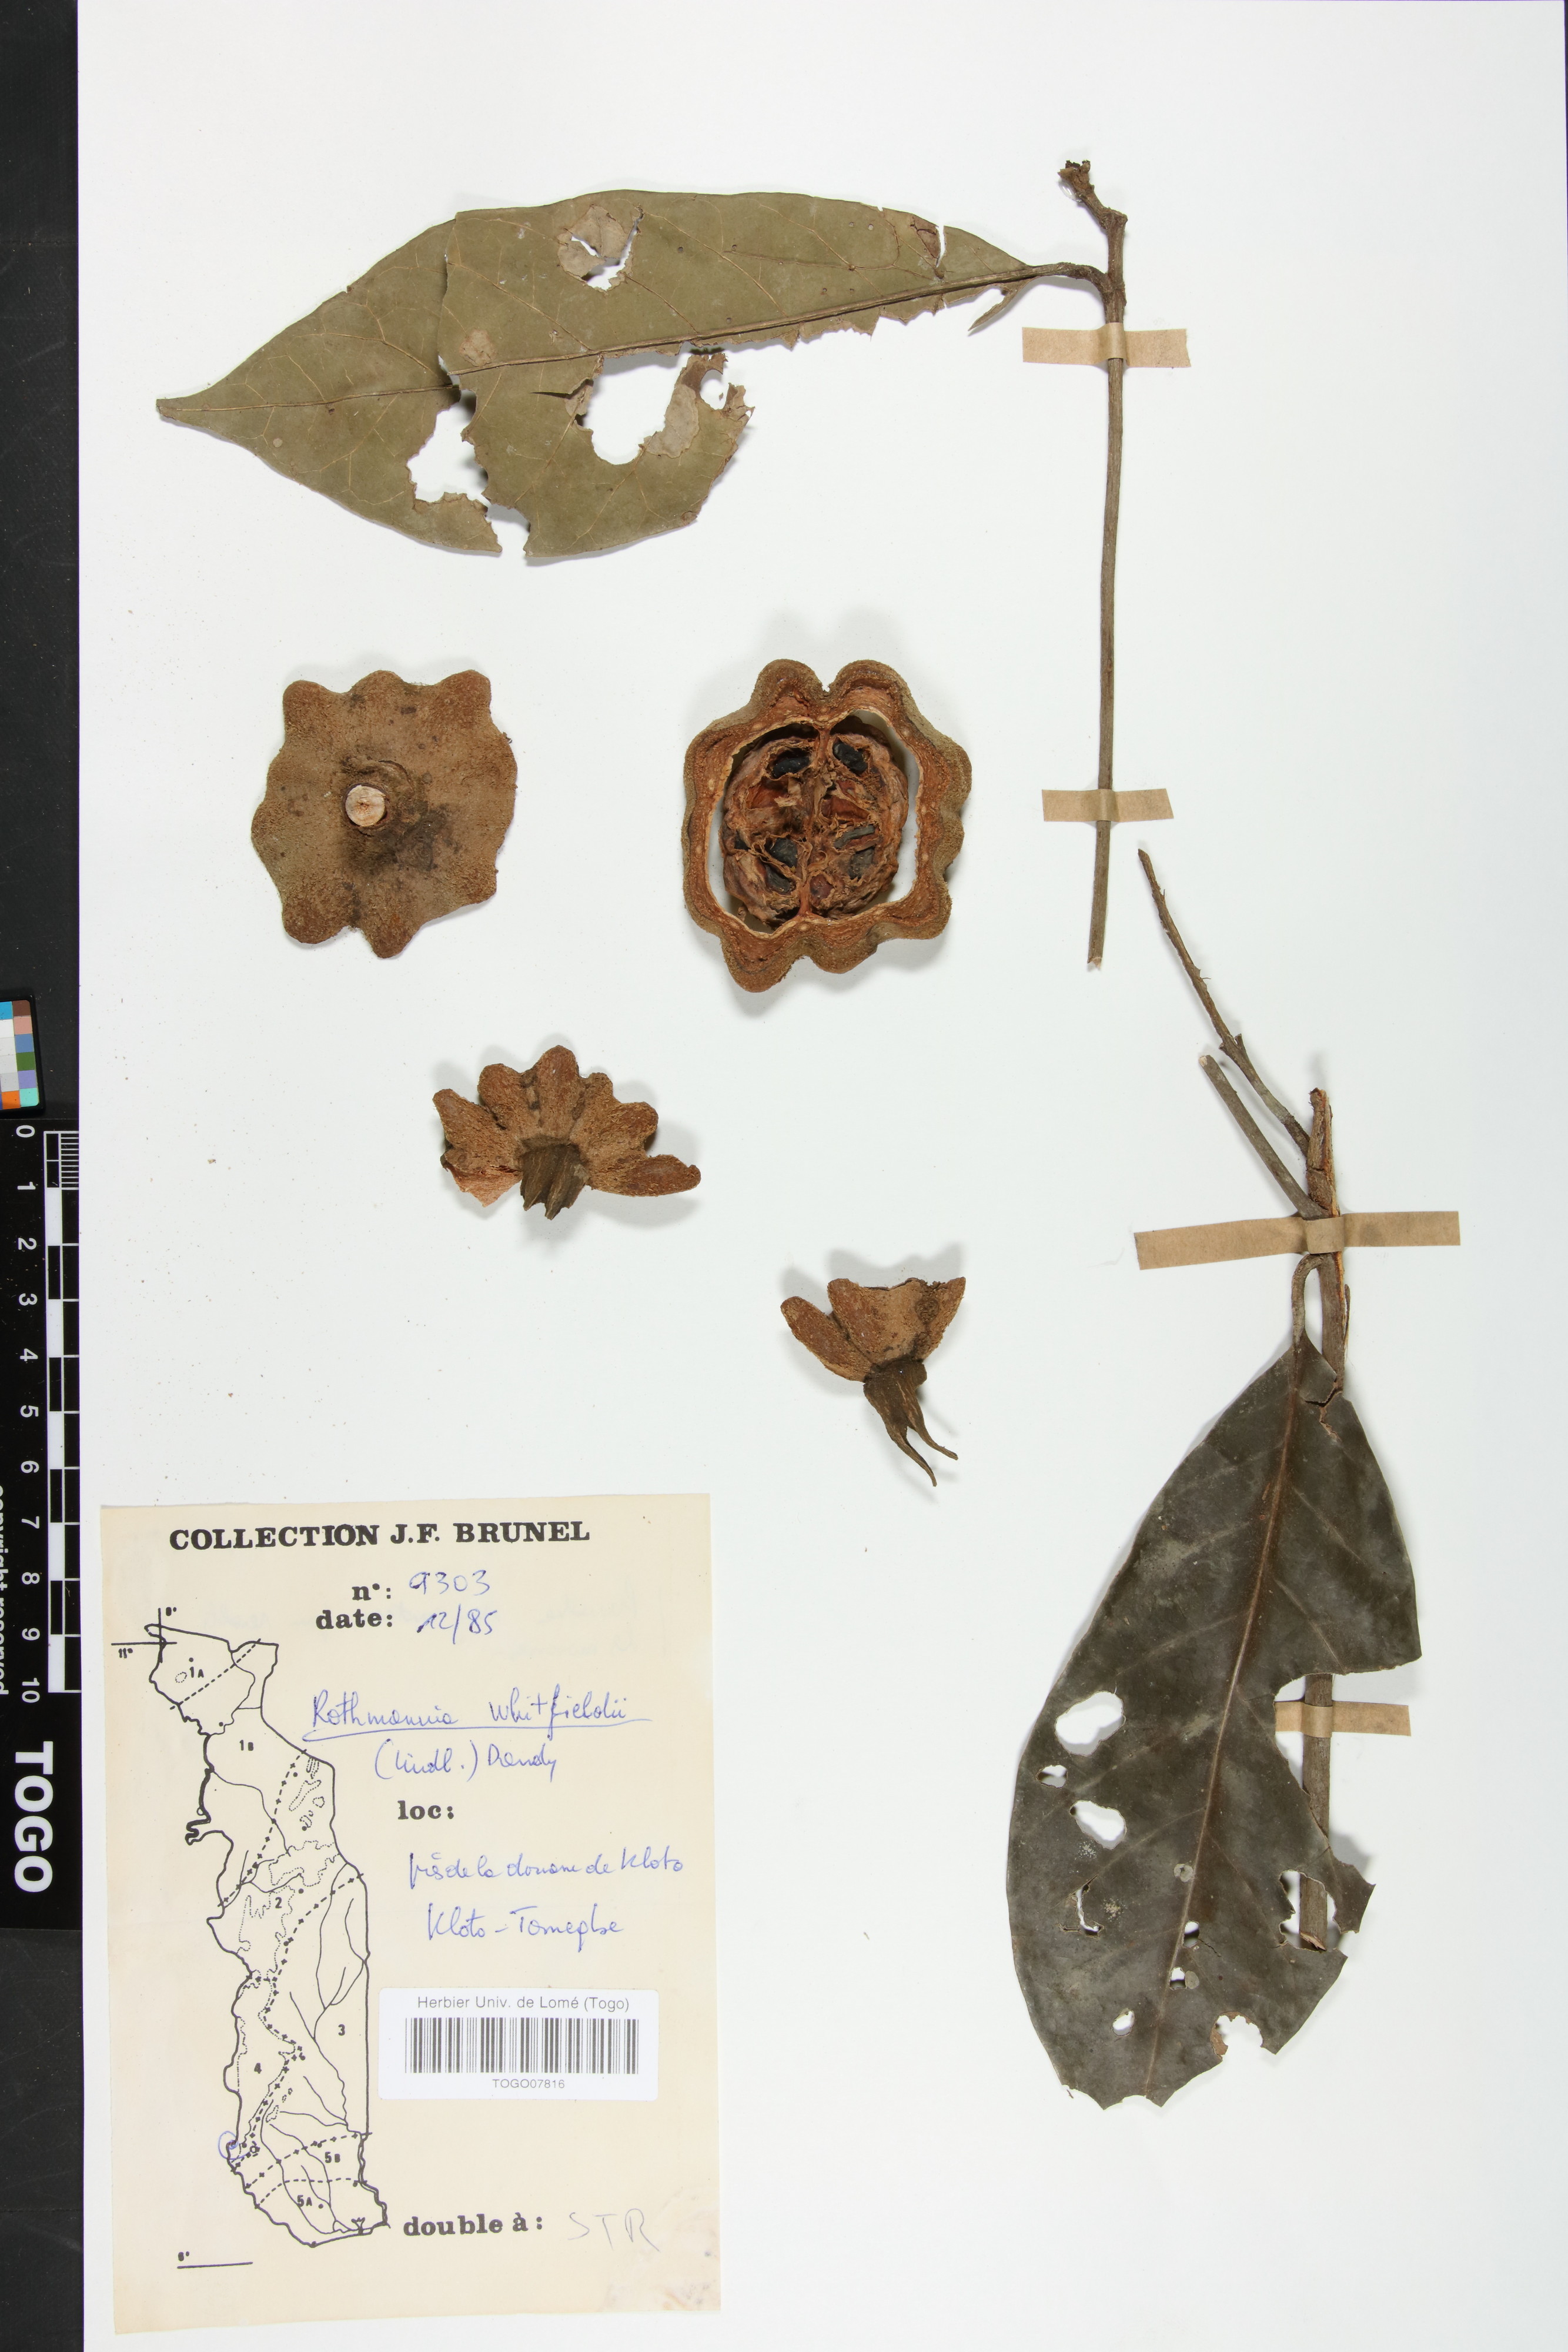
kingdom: Plantae
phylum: Tracheophyta
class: Magnoliopsida
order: Gentianales
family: Rubiaceae
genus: Rothmannia
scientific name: Rothmannia whitfieldii
